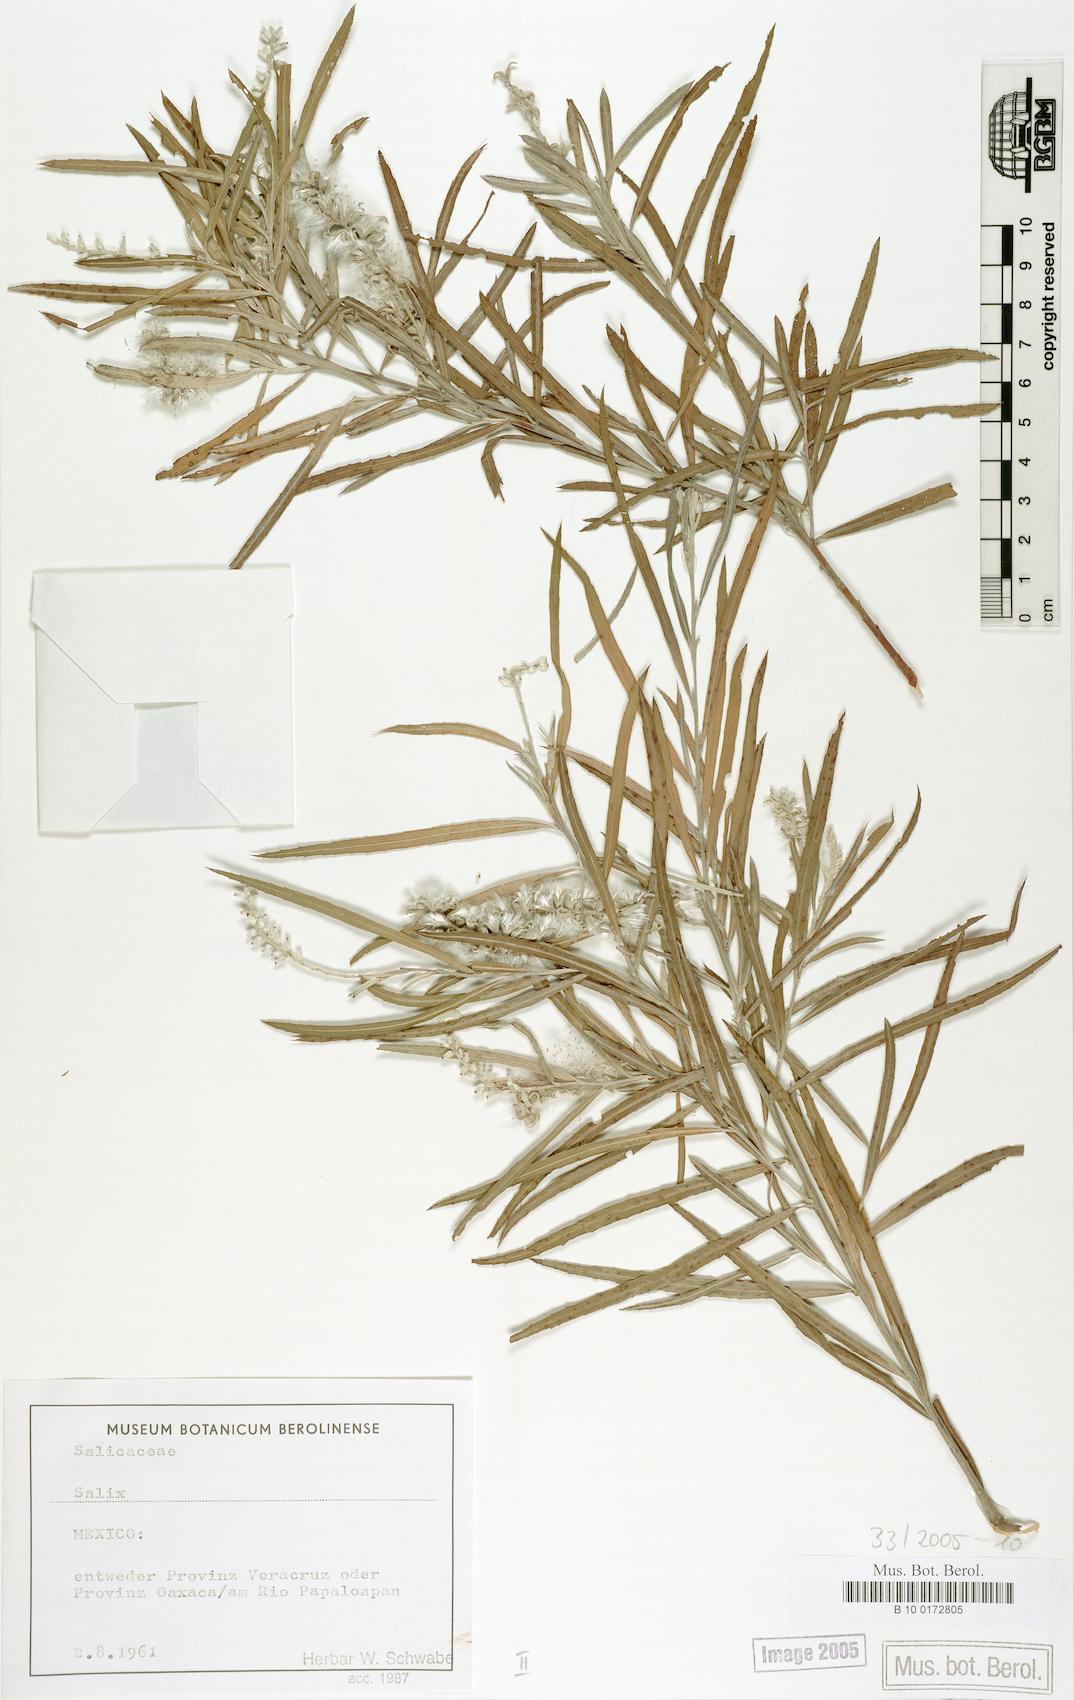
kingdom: Plantae
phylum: Tracheophyta
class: Magnoliopsida
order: Malpighiales
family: Salicaceae
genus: Salix
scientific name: Salix
